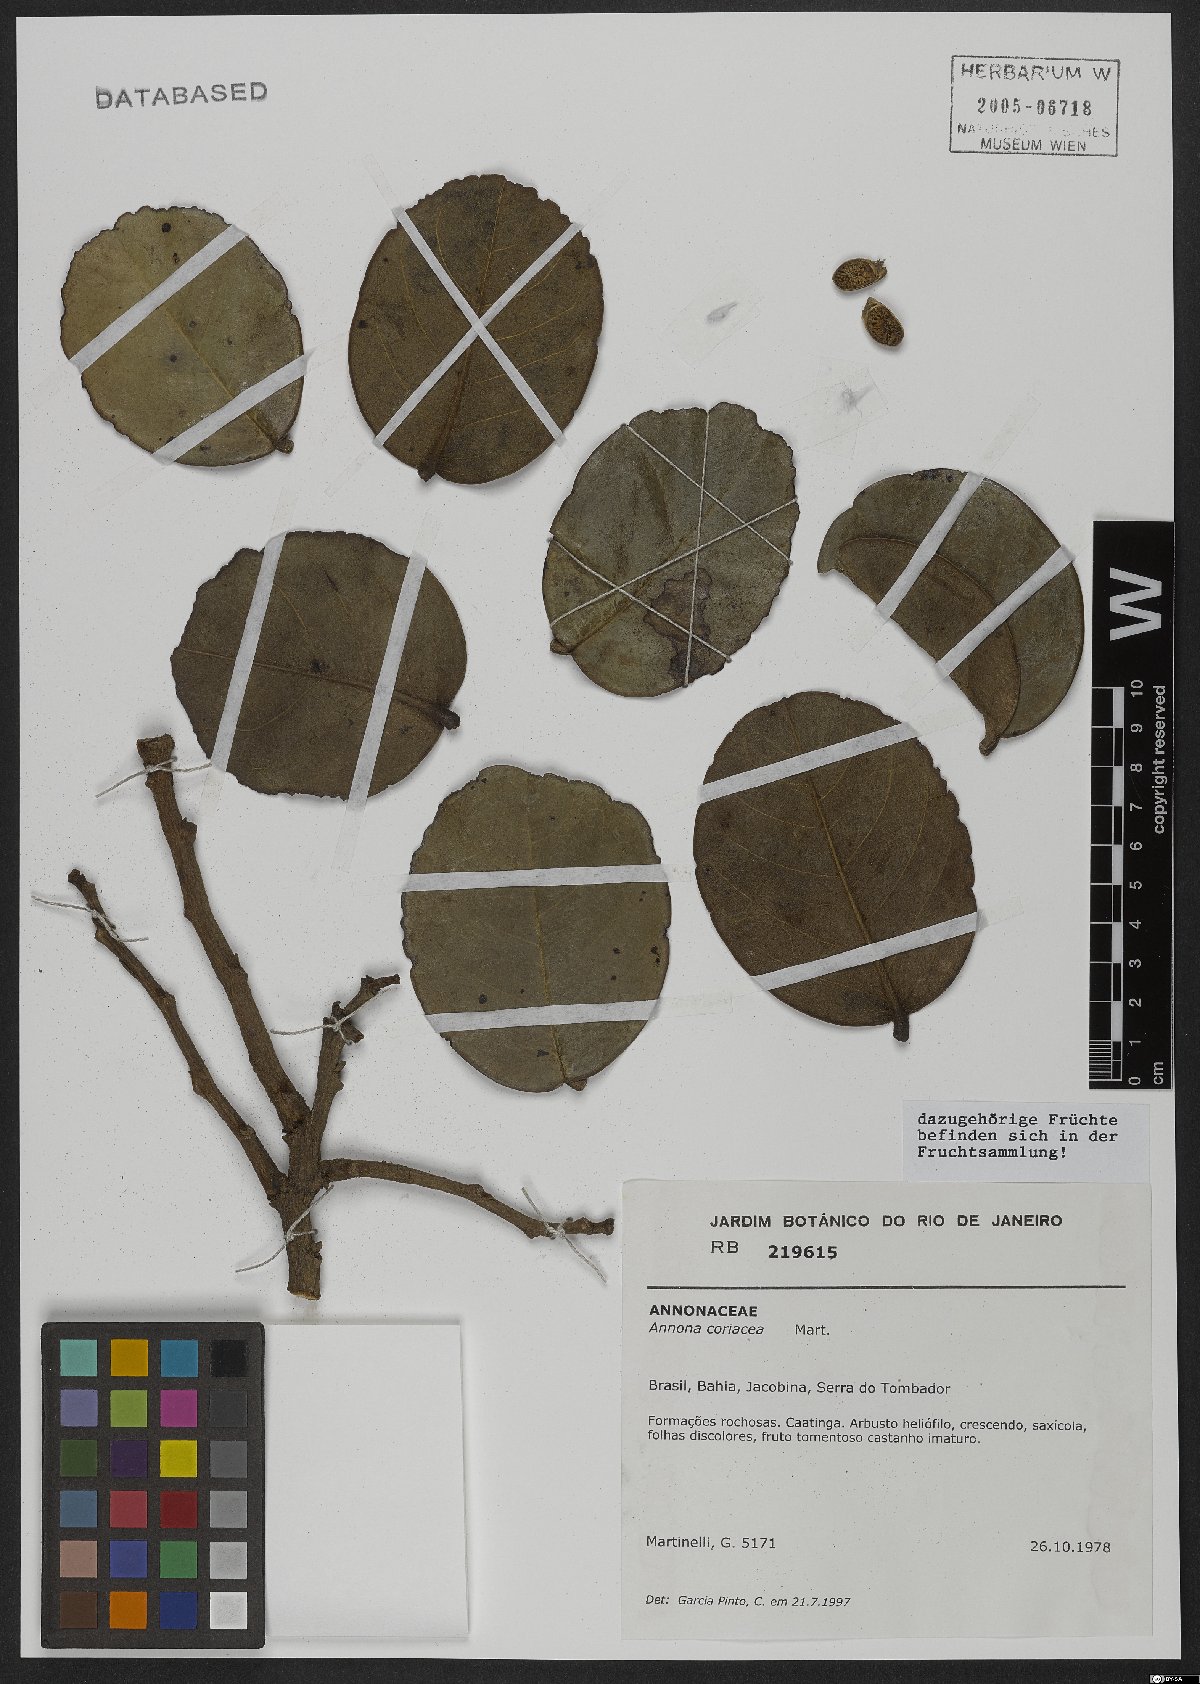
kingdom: Plantae
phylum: Tracheophyta
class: Magnoliopsida
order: Magnoliales
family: Annonaceae
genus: Annona
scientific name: Annona coriacea
